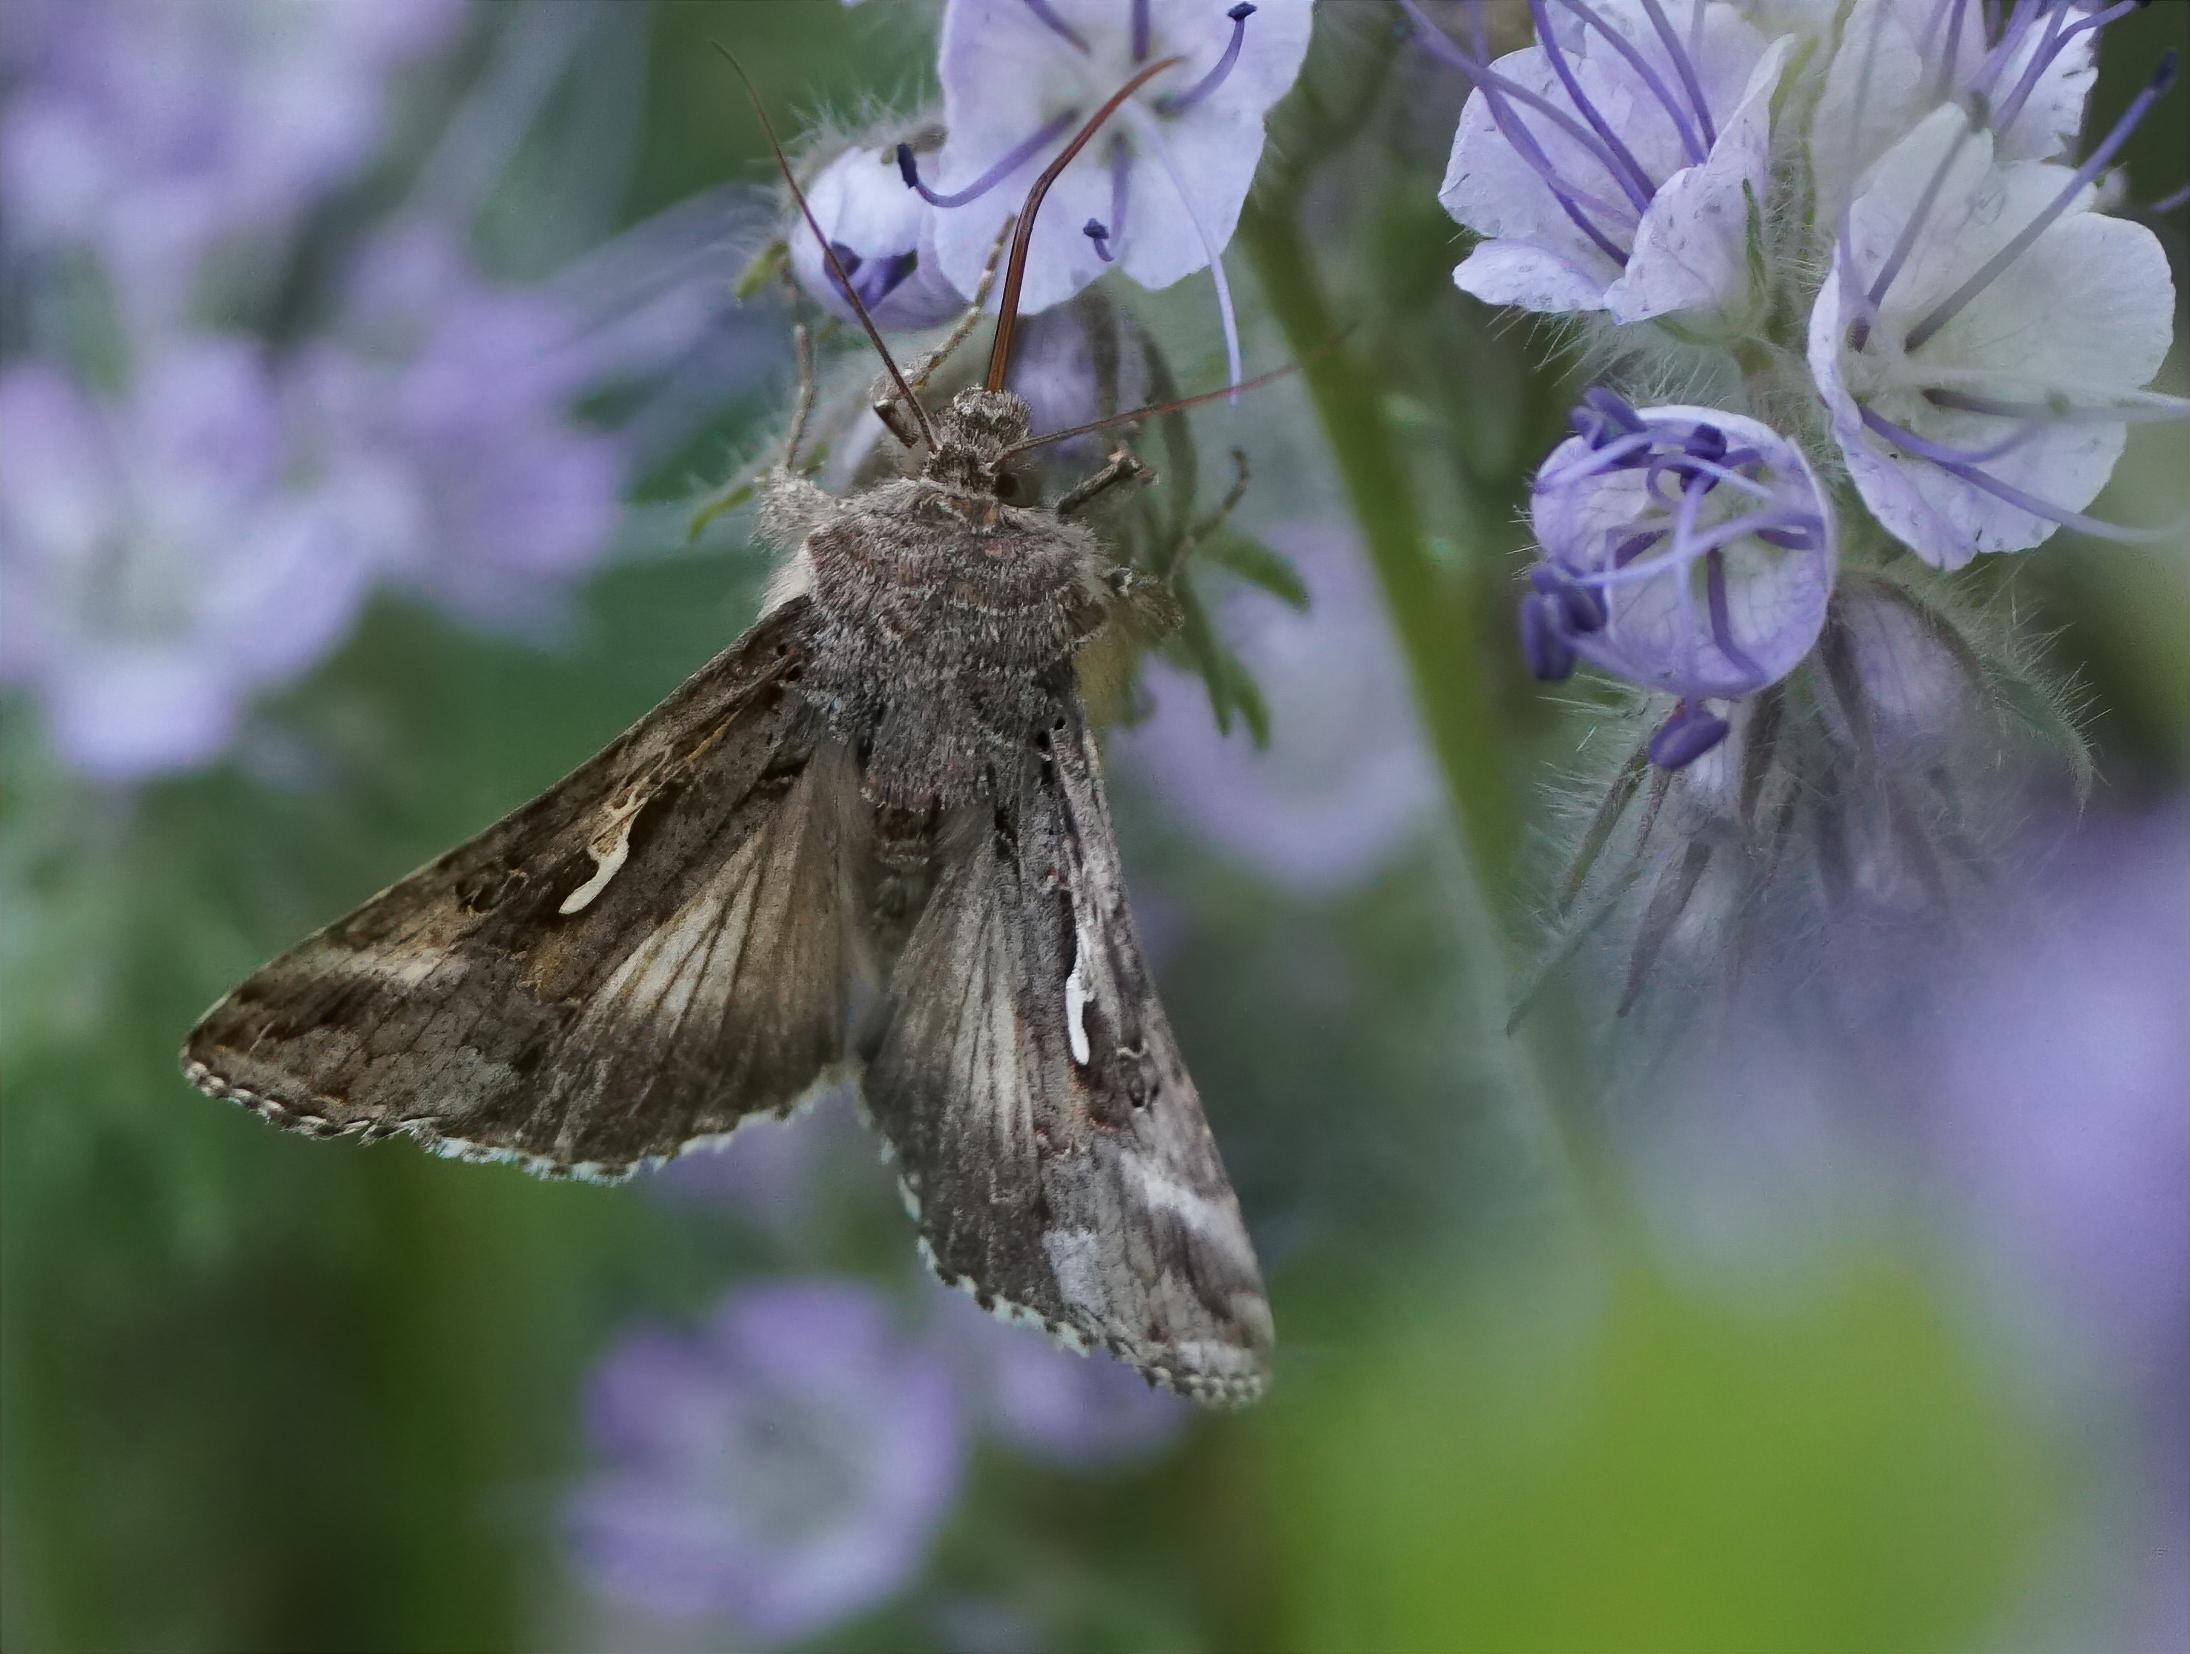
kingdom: Animalia
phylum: Arthropoda
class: Insecta
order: Lepidoptera
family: Noctuidae
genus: Autographa
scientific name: Autographa gamma
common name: Gammaugle
